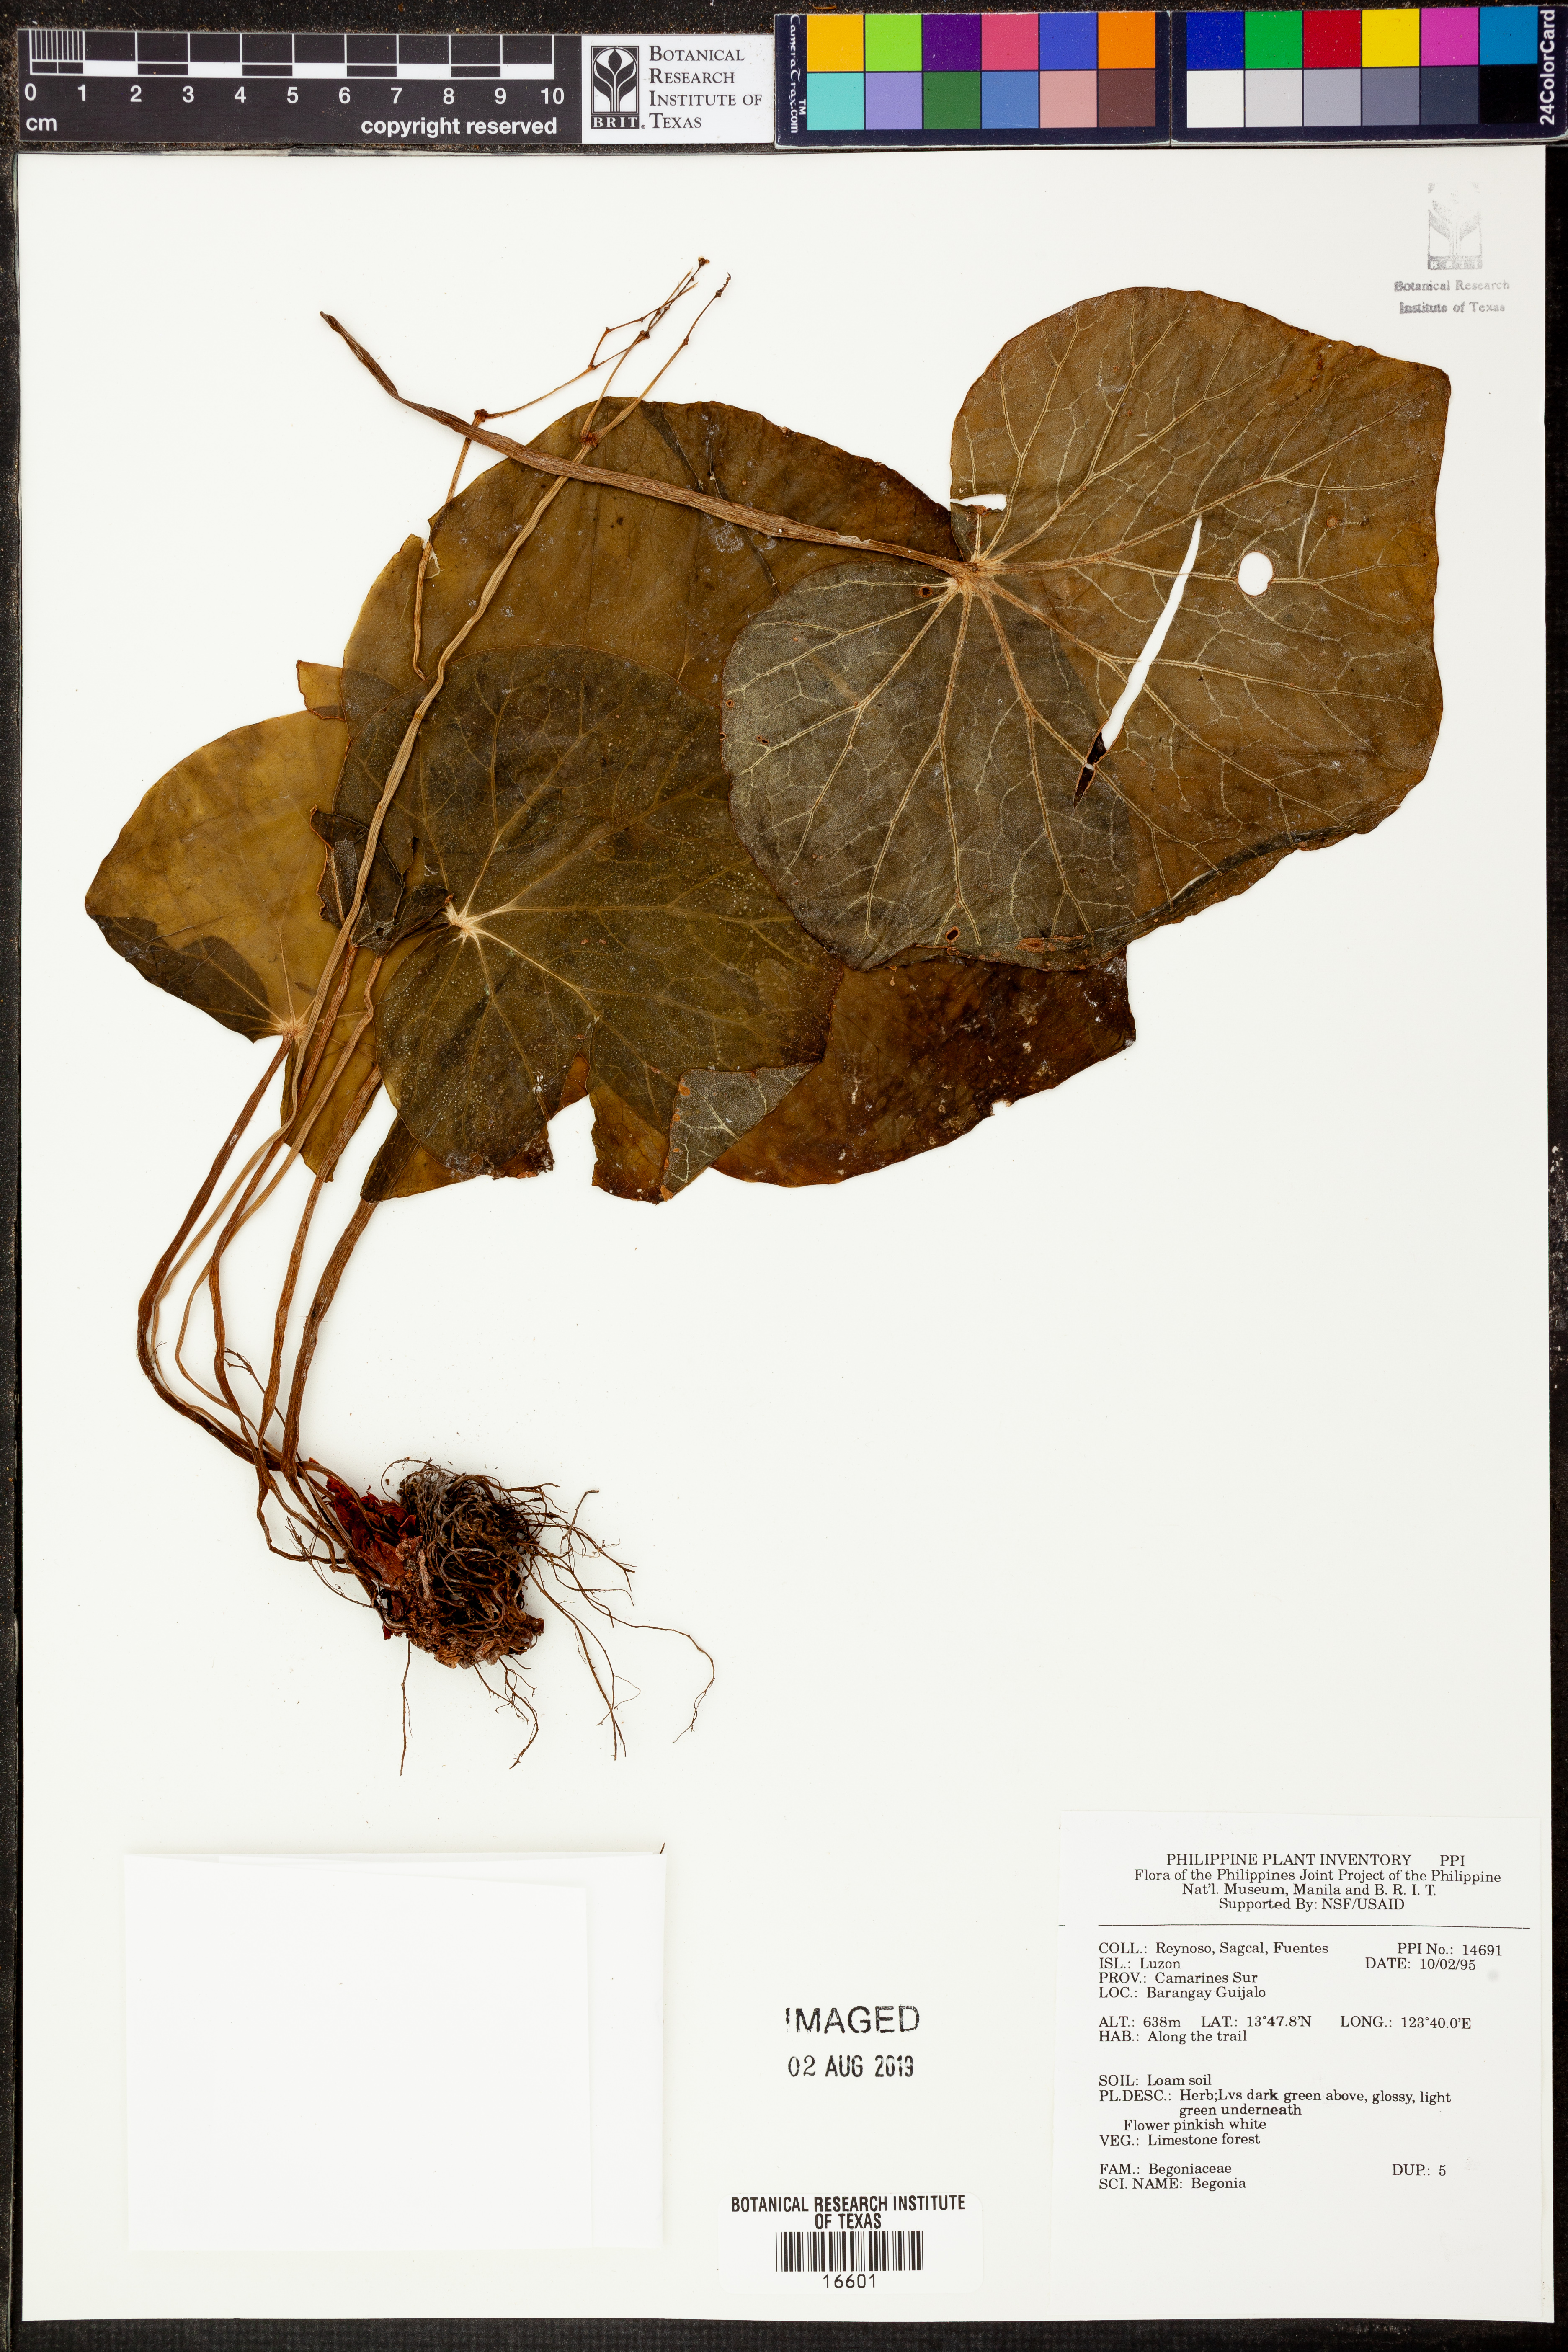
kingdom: Plantae
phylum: Tracheophyta
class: Magnoliopsida
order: Cucurbitales
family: Begoniaceae
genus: Begonia
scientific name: Begonia
